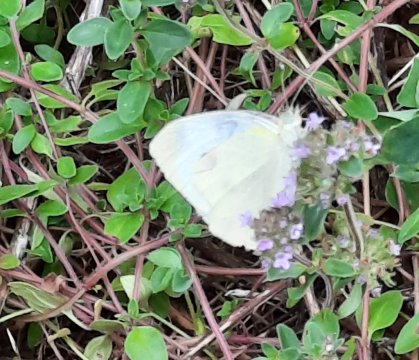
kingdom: Animalia
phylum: Arthropoda
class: Insecta
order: Lepidoptera
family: Pieridae
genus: Pieris
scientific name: Pieris rapae
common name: Cabbage White
